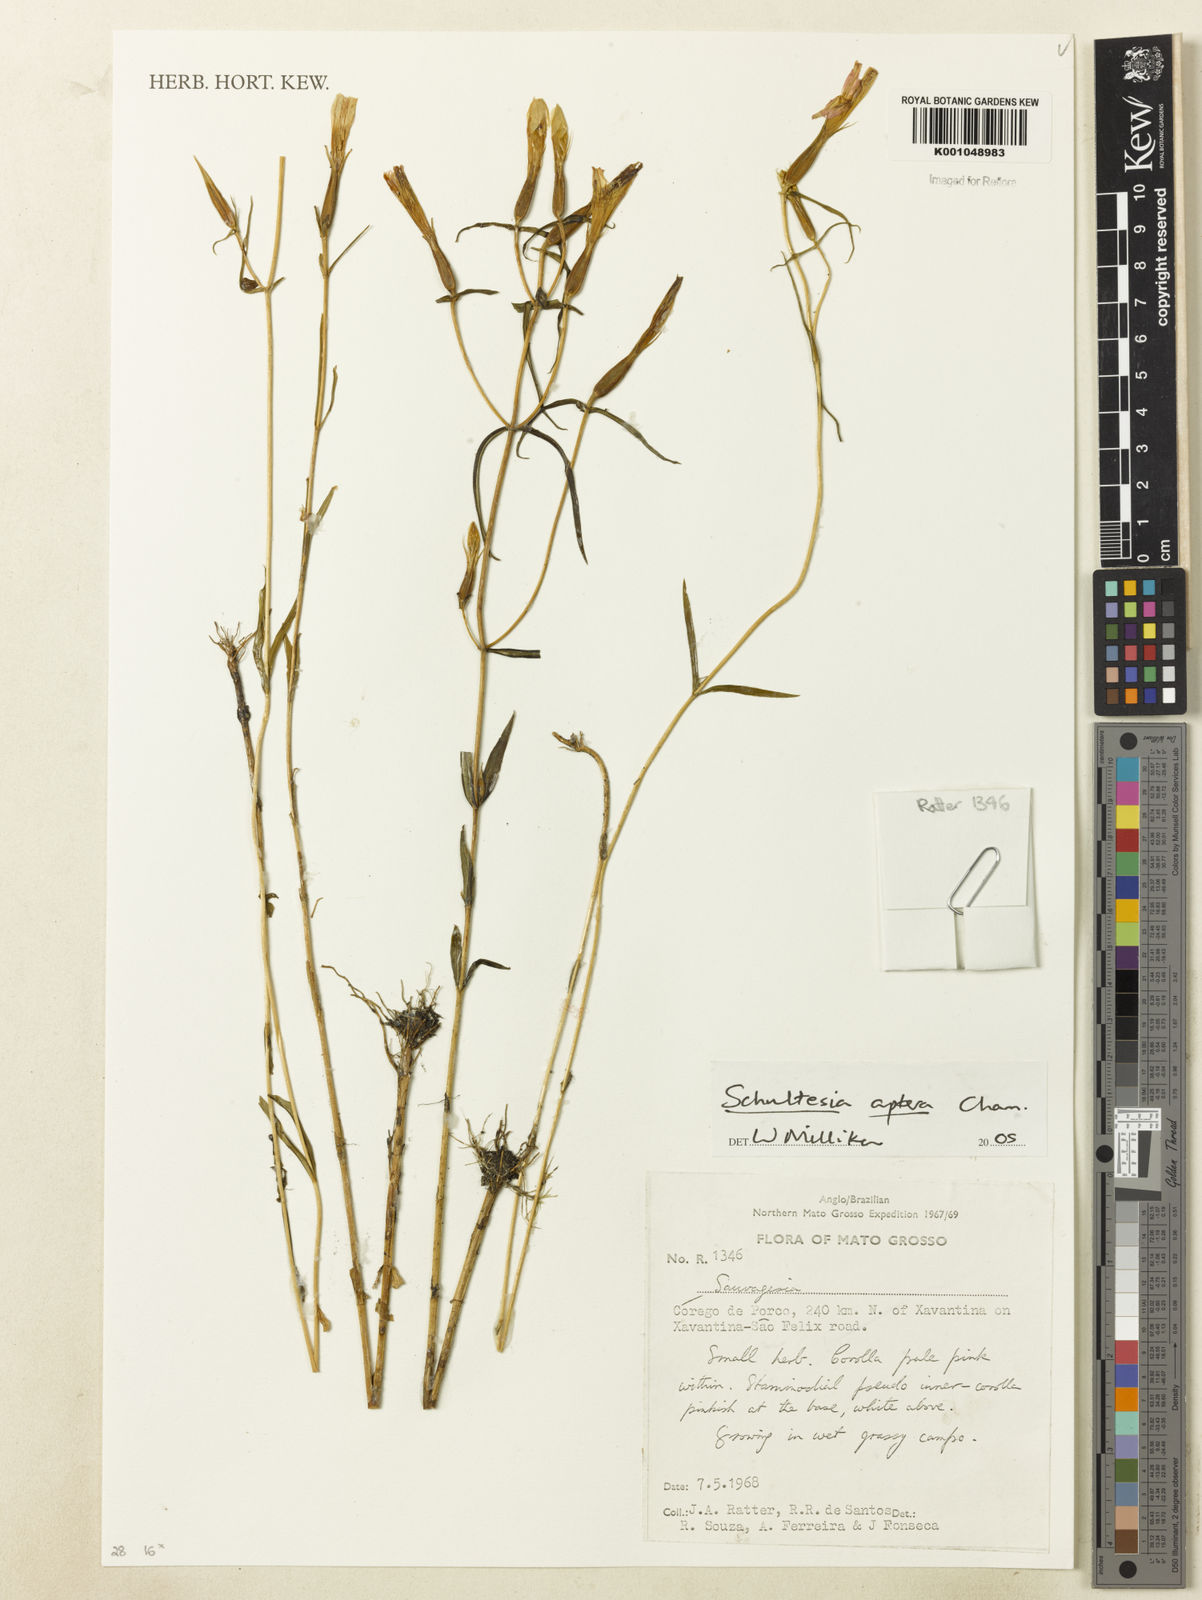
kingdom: Plantae
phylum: Tracheophyta
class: Magnoliopsida
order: Gentianales
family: Gentianaceae
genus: Schultesia
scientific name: Schultesia aptera
